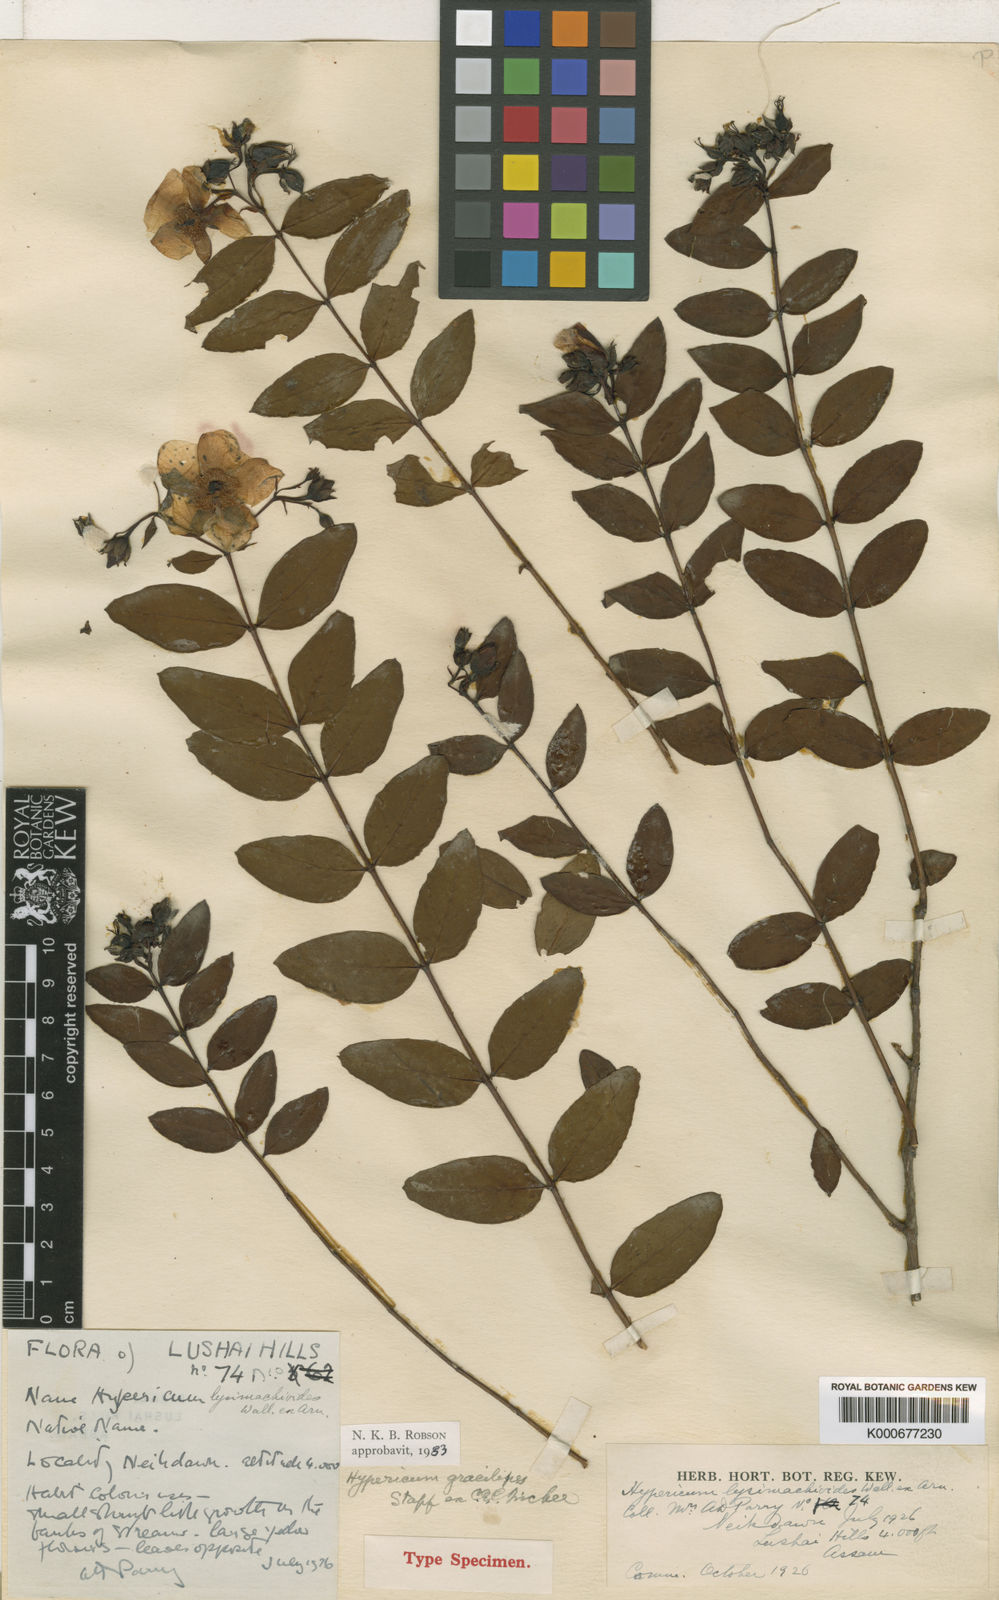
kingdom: Plantae
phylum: Tracheophyta
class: Magnoliopsida
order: Malpighiales
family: Hypericaceae
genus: Hypericum
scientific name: Hypericum gracilipes
